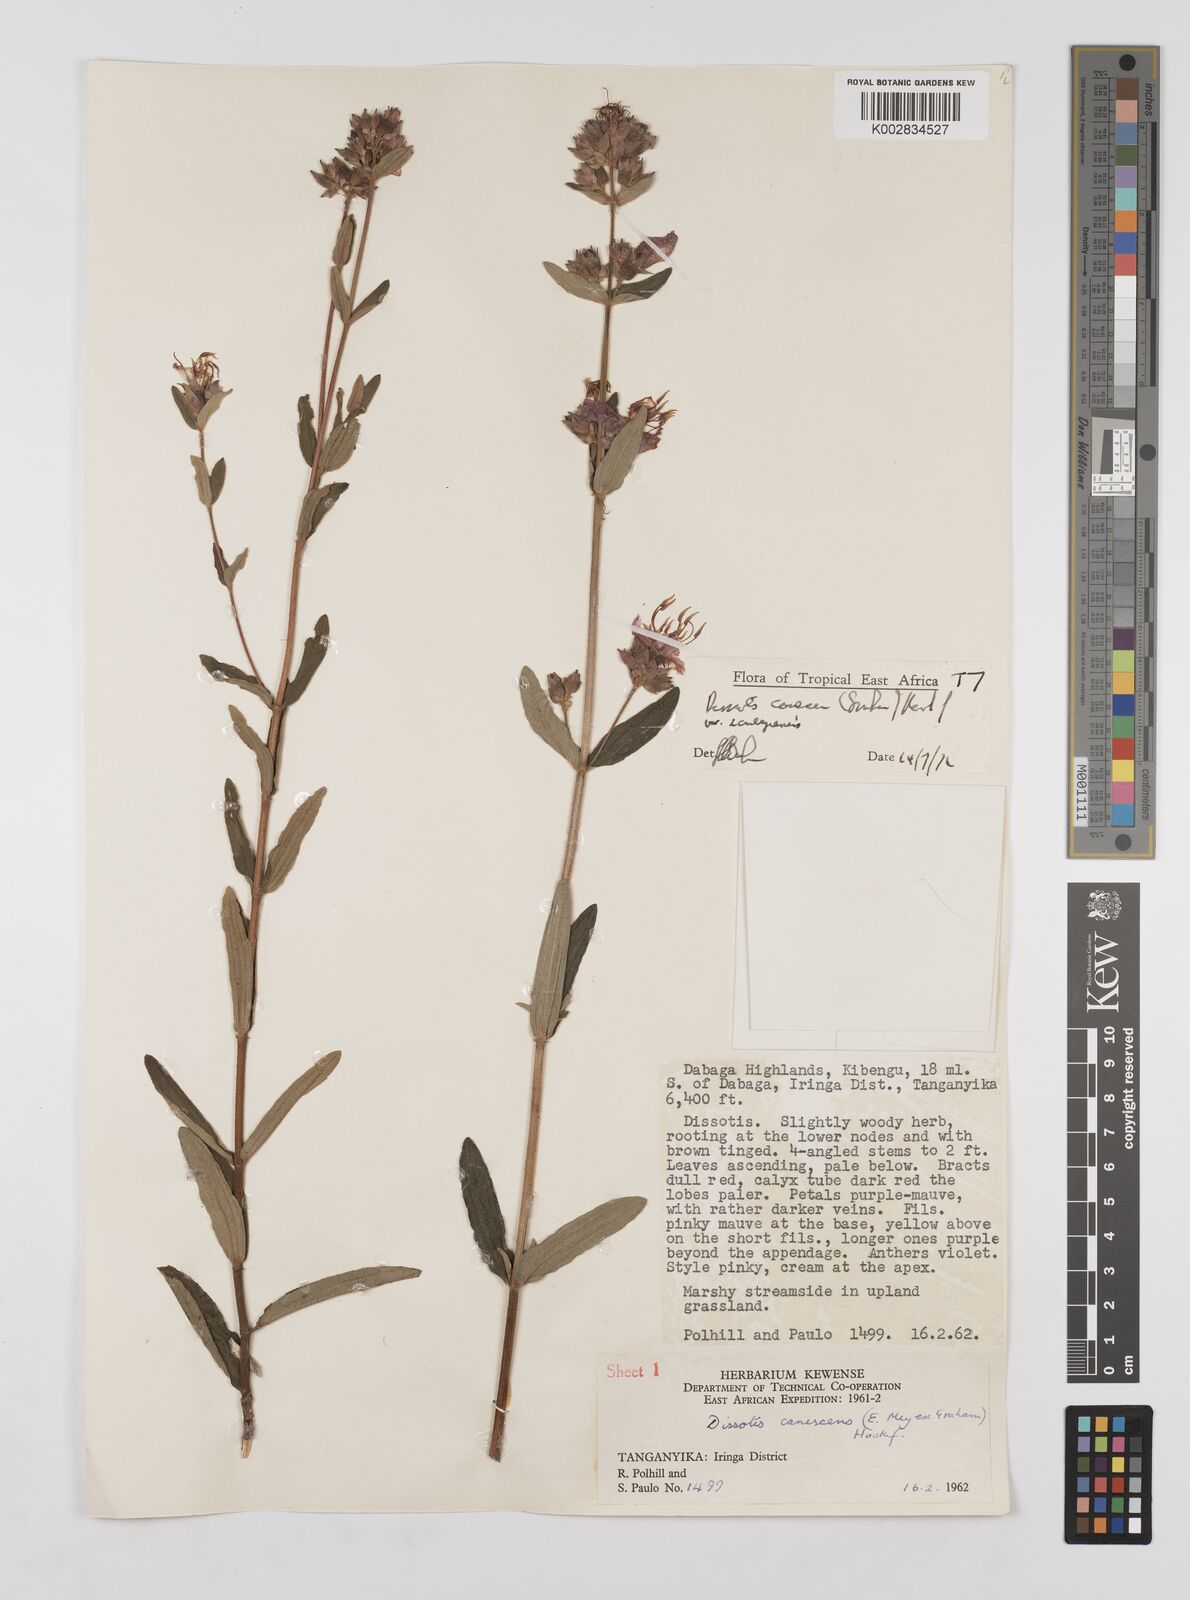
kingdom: Plantae
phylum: Tracheophyta
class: Magnoliopsida
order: Myrtales
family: Melastomataceae
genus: Argyrella
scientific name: Argyrella canescens
